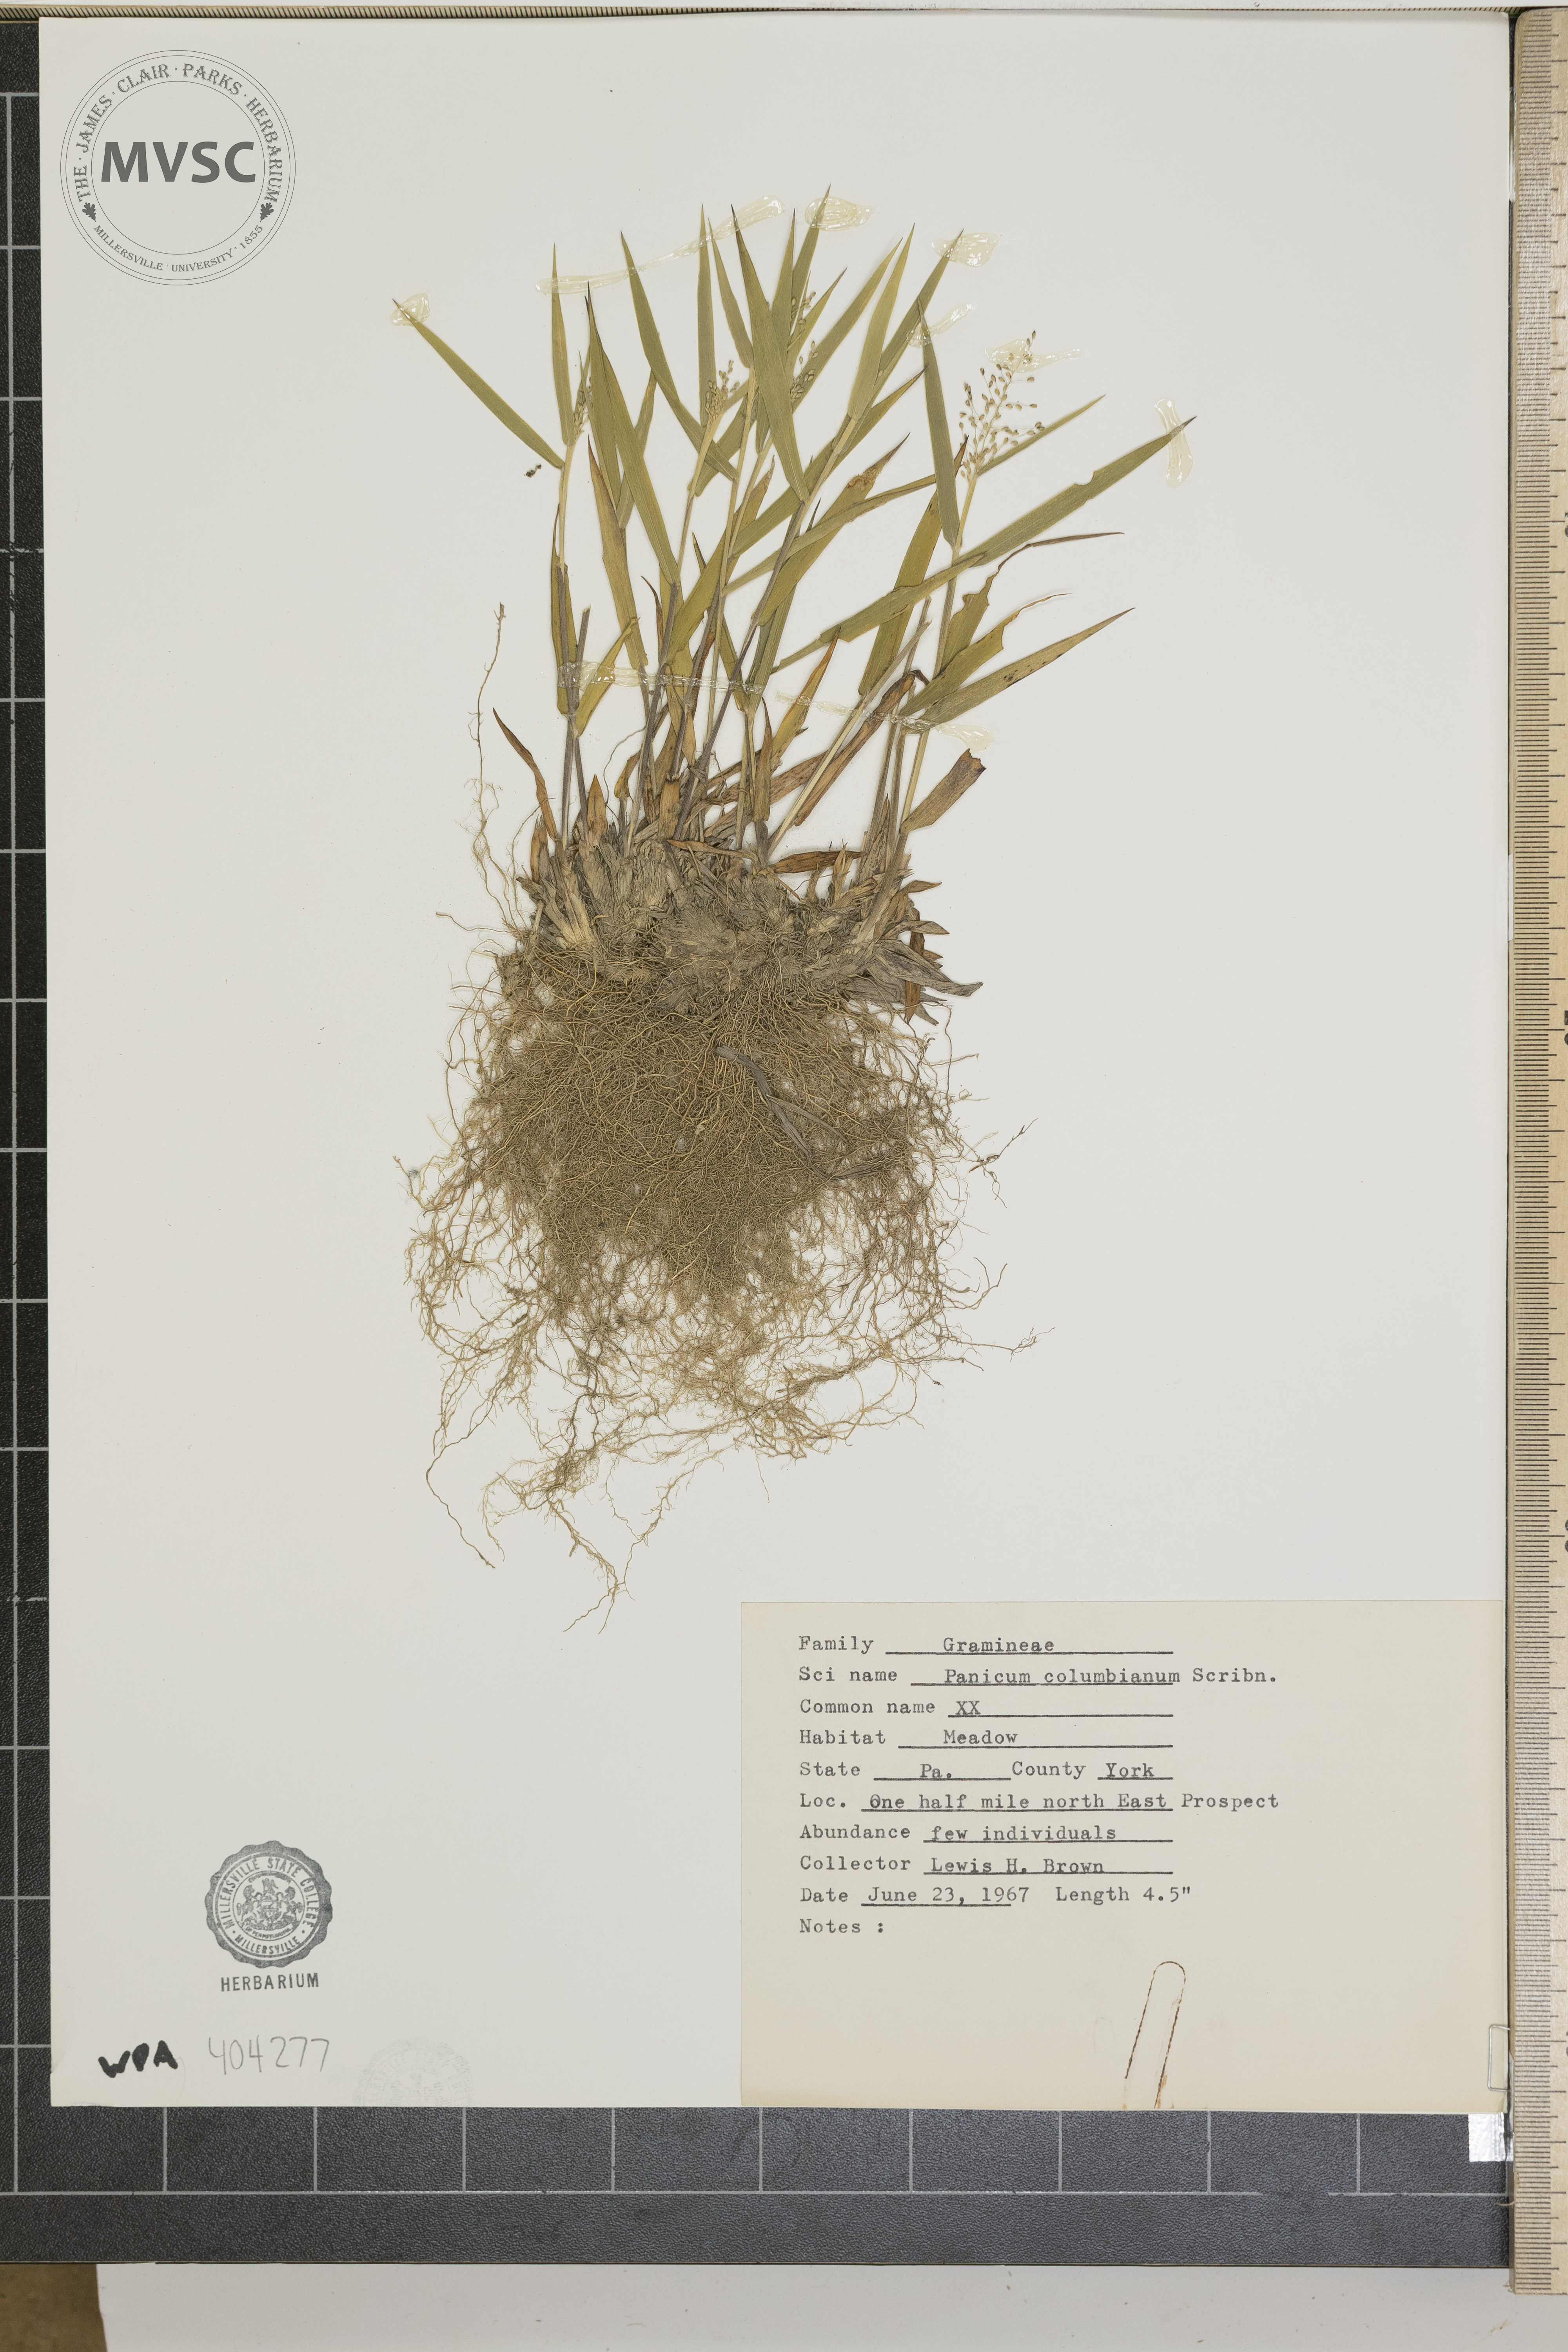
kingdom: Plantae
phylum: Tracheophyta
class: Liliopsida
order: Poales
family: Poaceae
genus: Dichanthelium
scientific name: Dichanthelium columbianum
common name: Hemlock panic grass
